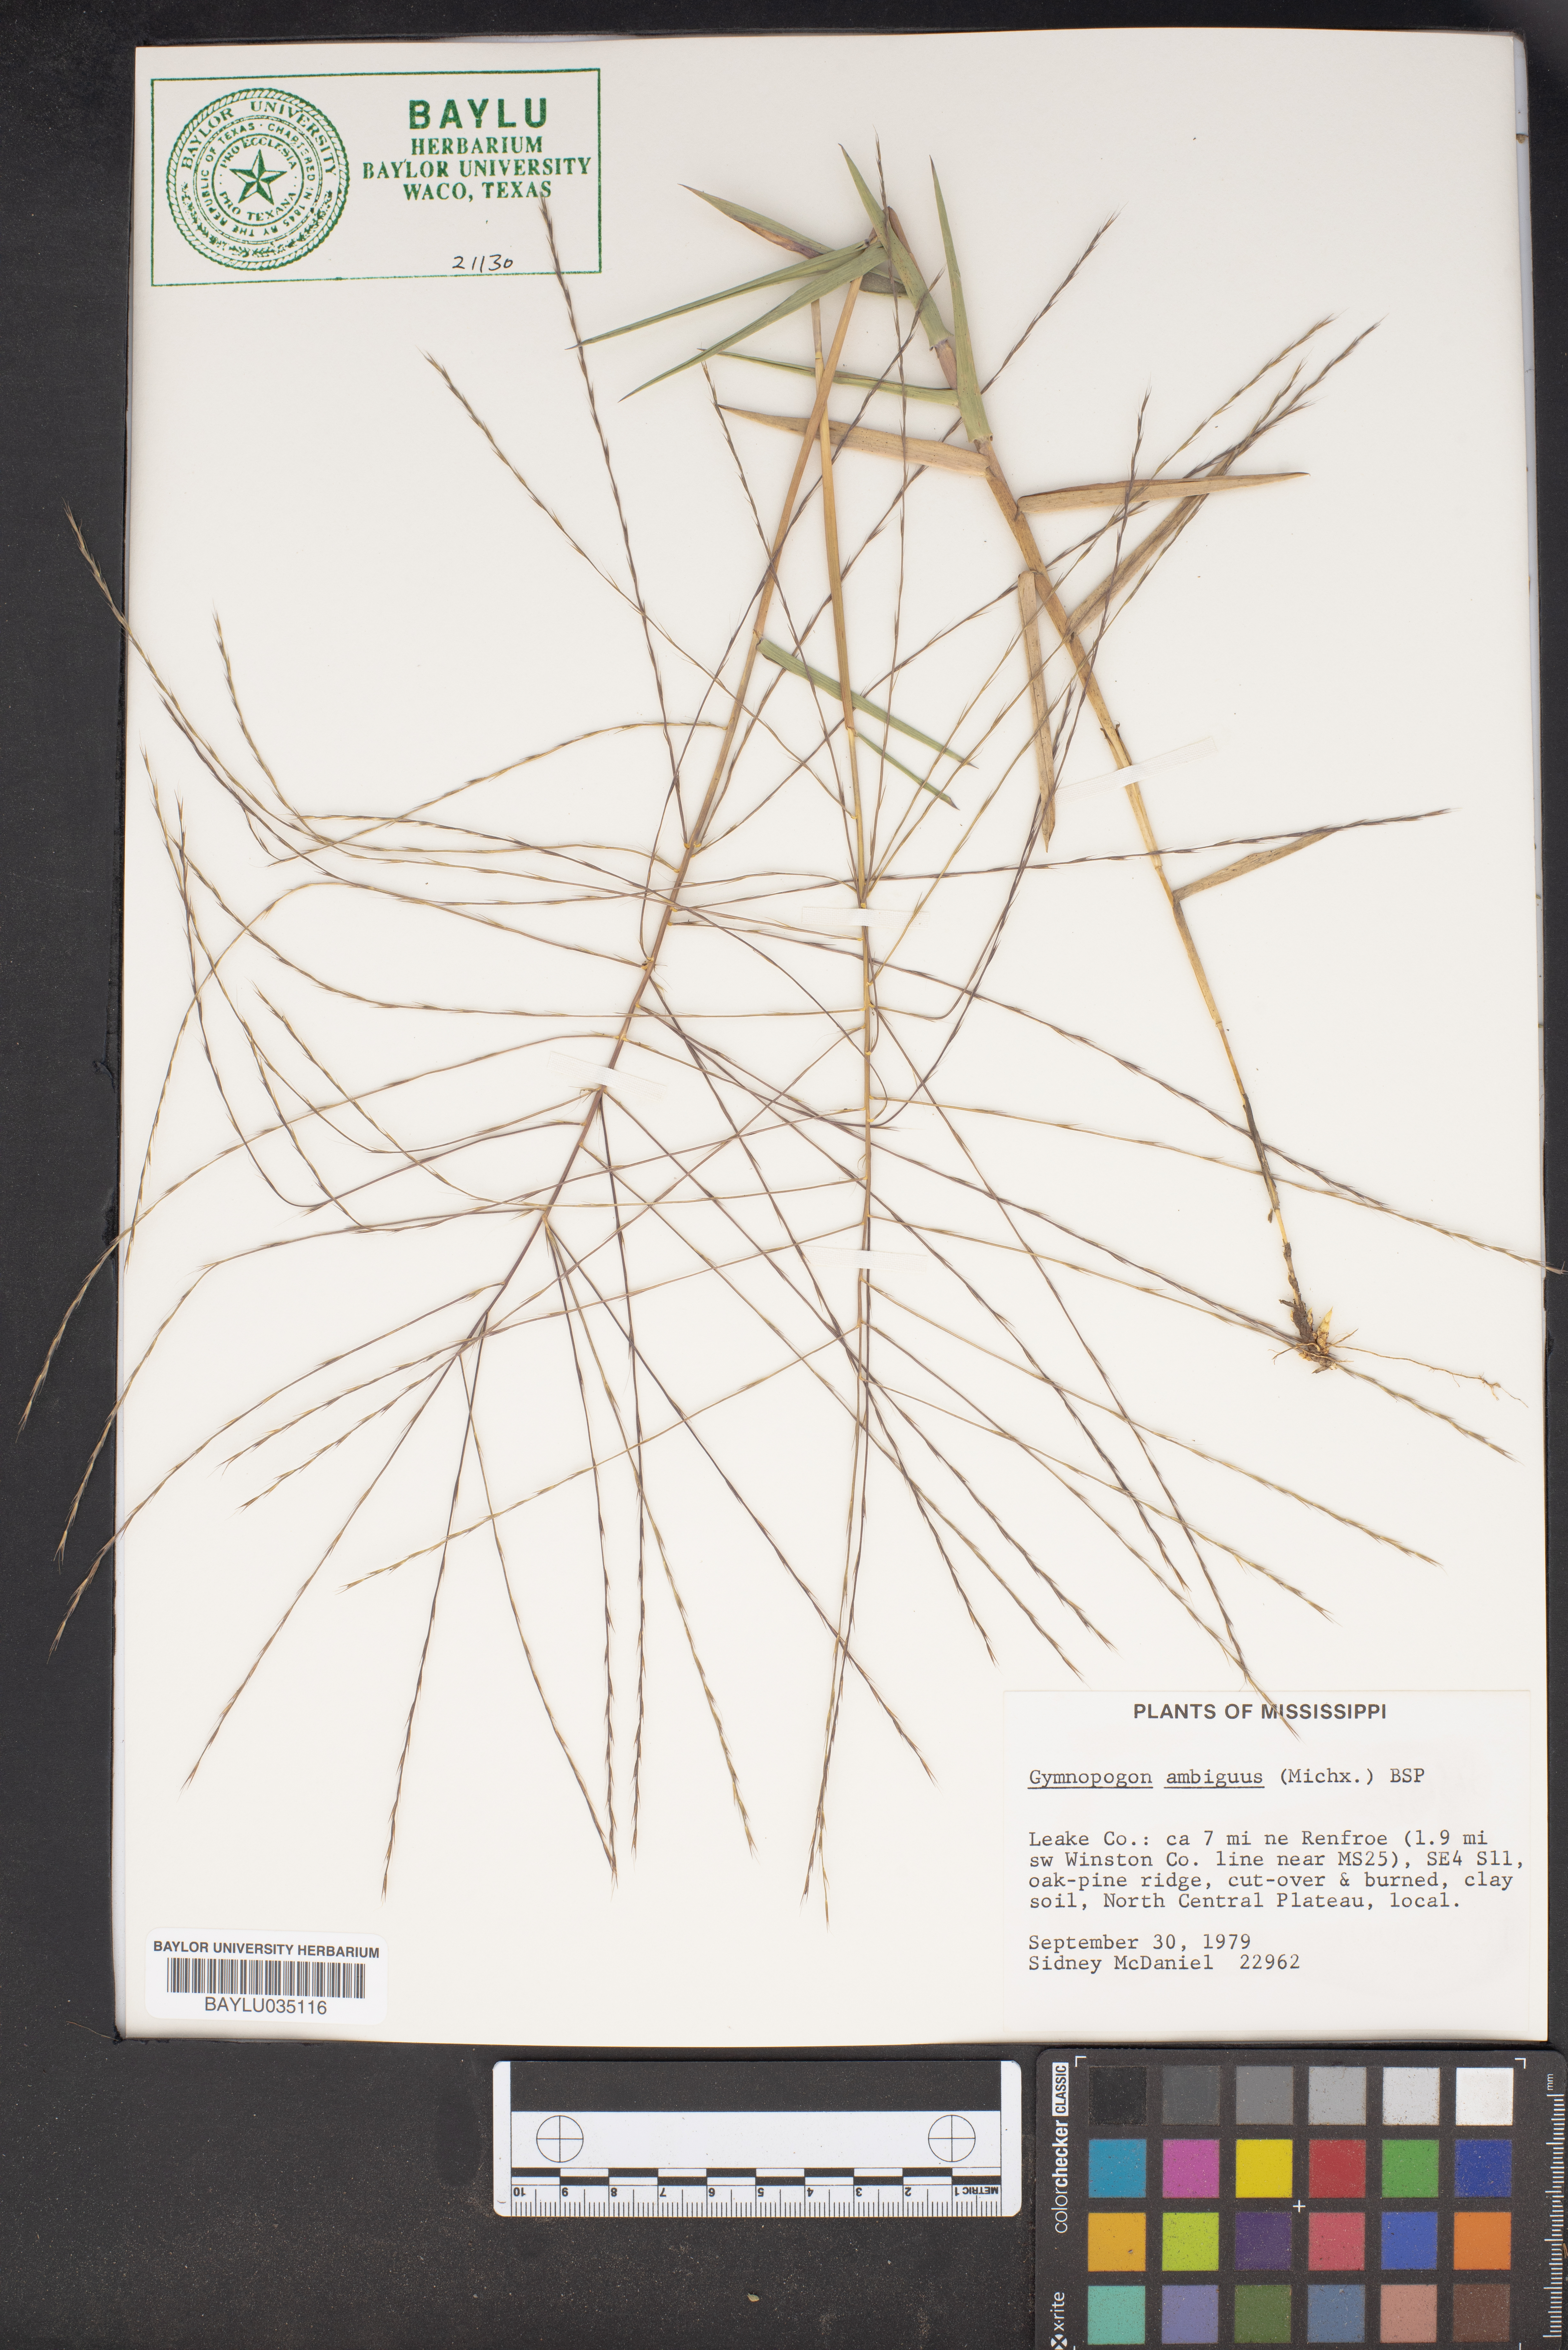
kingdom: Plantae
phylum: Tracheophyta
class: Liliopsida
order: Poales
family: Poaceae
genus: Gymnopogon
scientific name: Gymnopogon ambiguus
